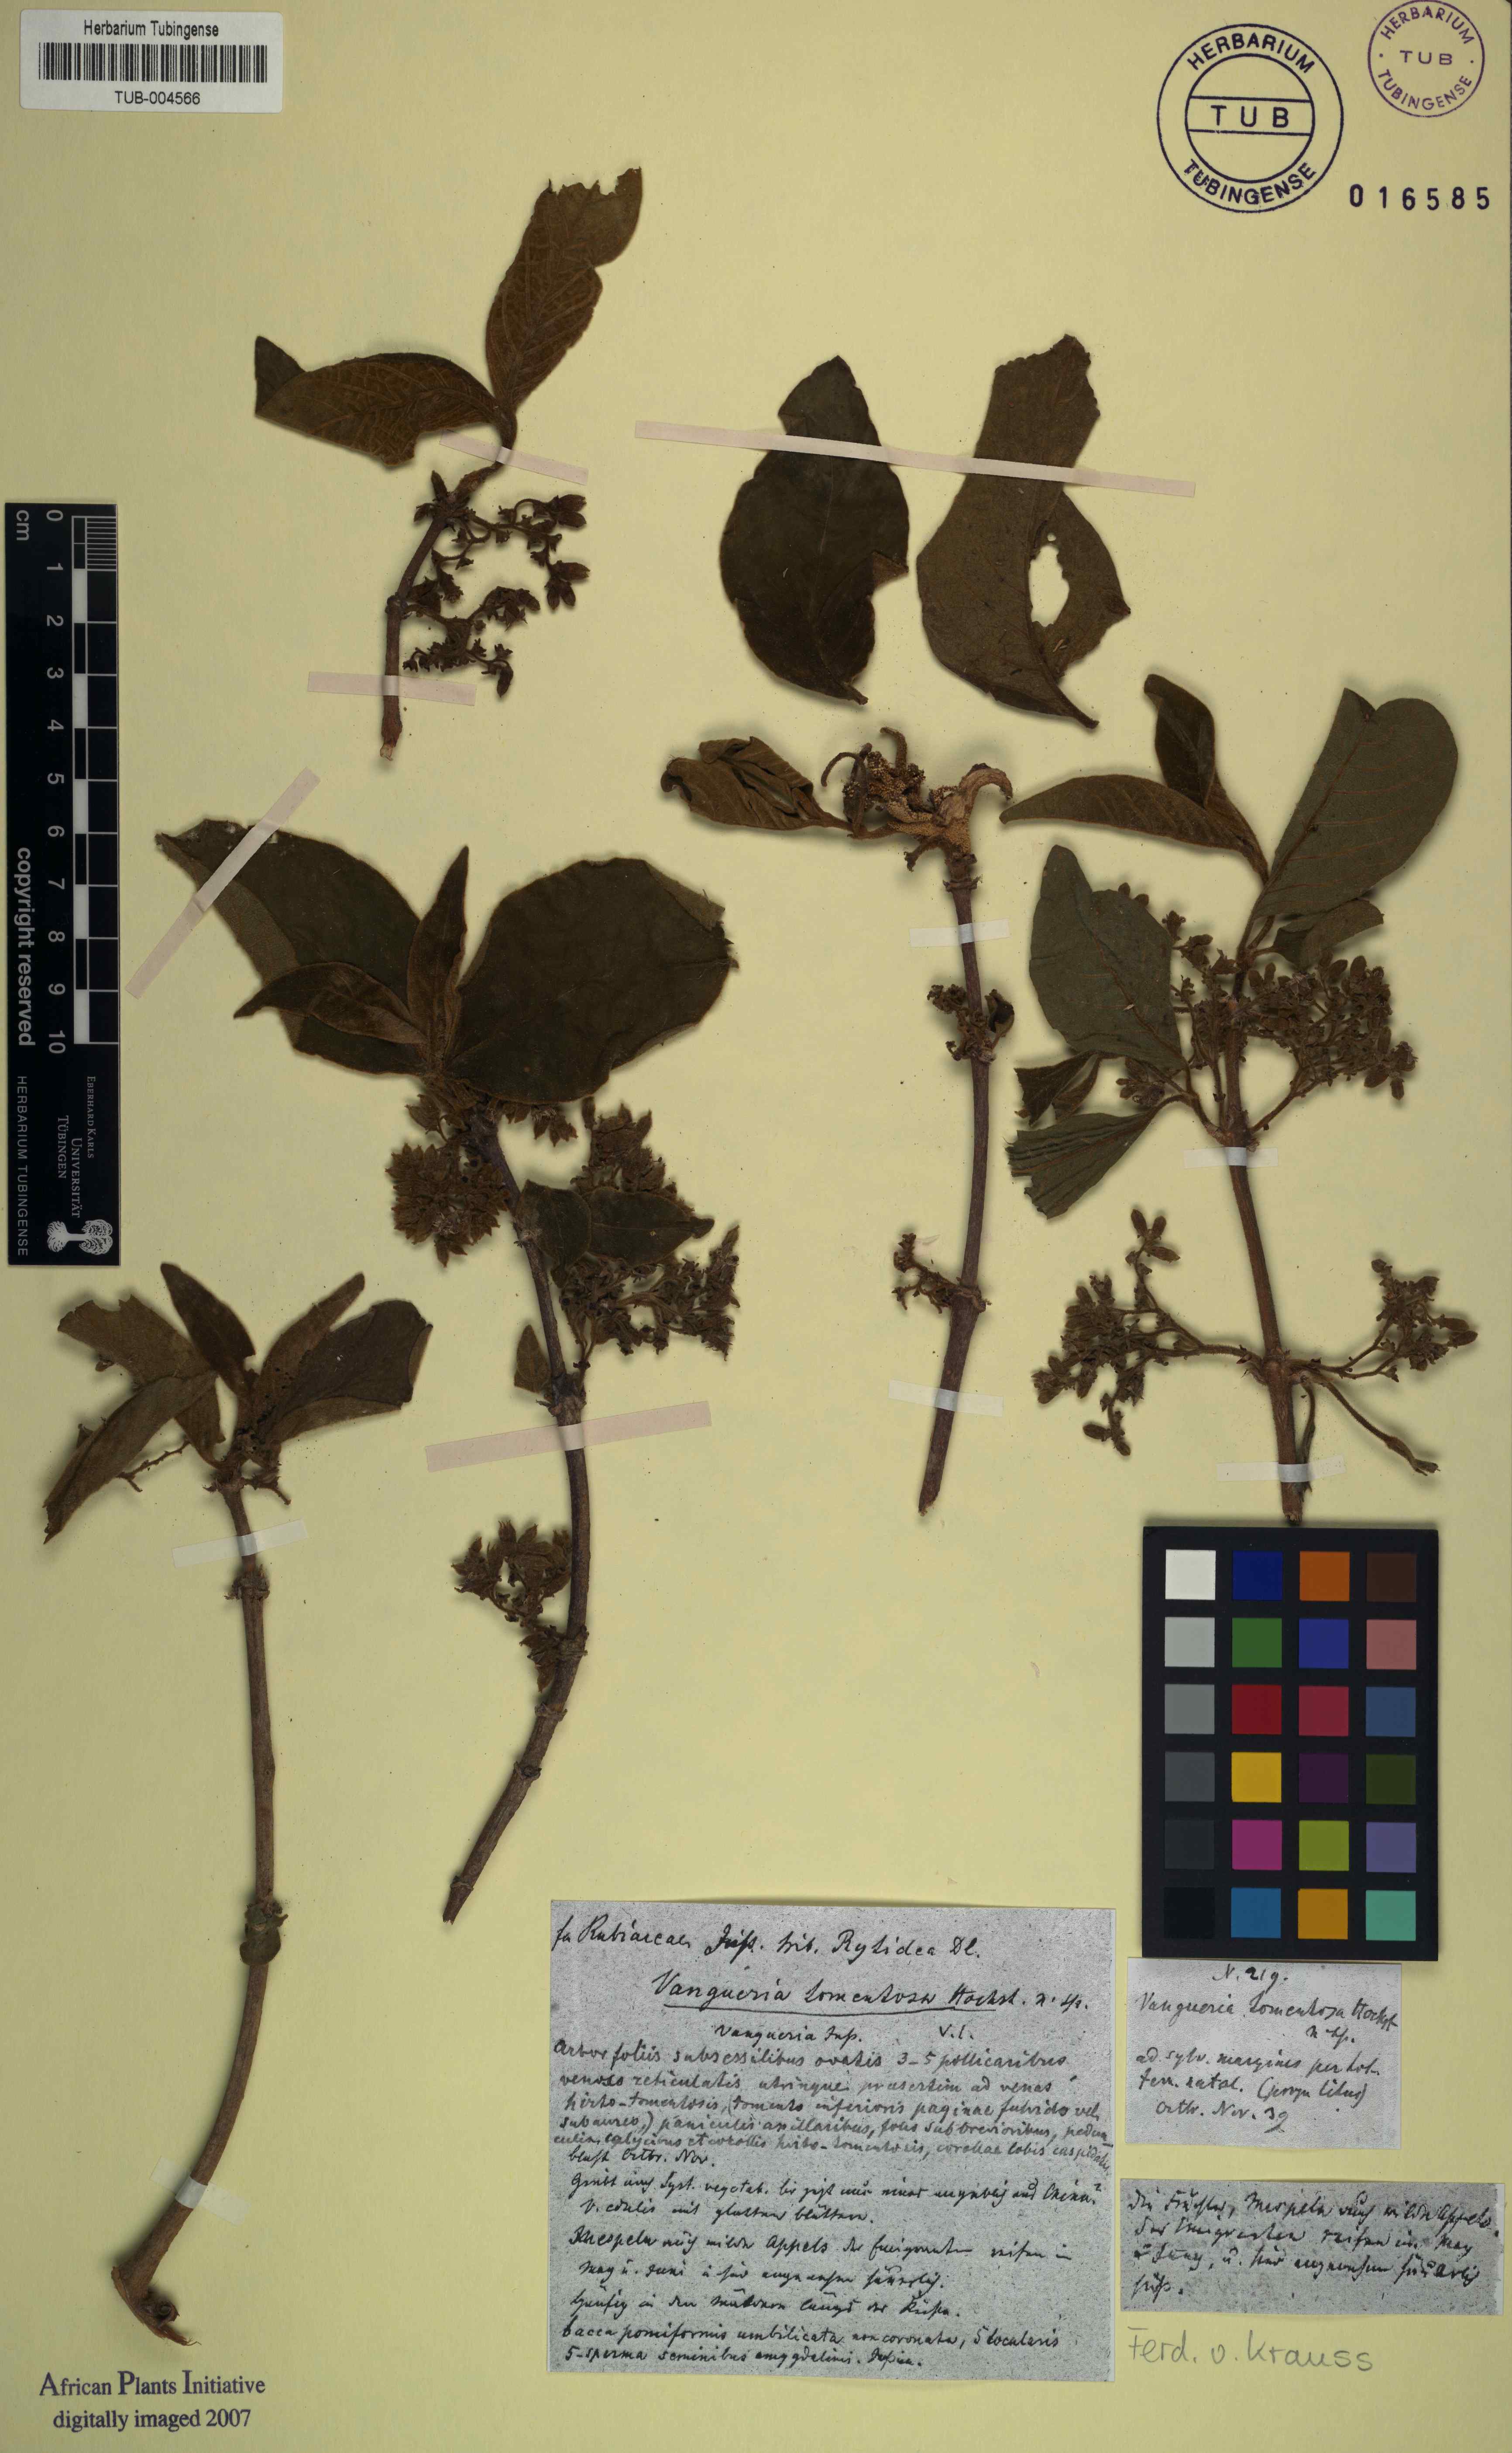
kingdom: Plantae
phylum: Tracheophyta
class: Magnoliopsida
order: Gentianales
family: Rubiaceae
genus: Vangueria
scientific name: Vangueria infausta
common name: Medlar
